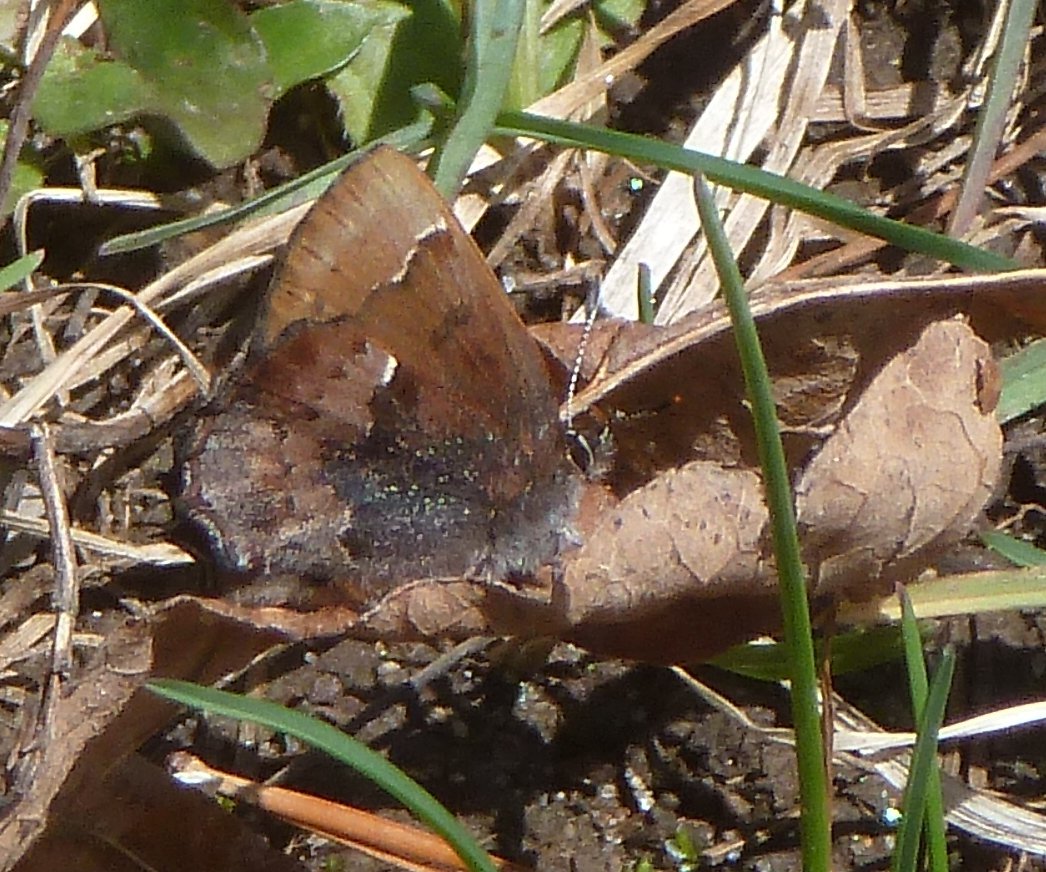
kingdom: Animalia
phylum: Arthropoda
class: Insecta
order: Lepidoptera
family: Lycaenidae
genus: Incisalia
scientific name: Incisalia henrici
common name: Henry's Elfin
